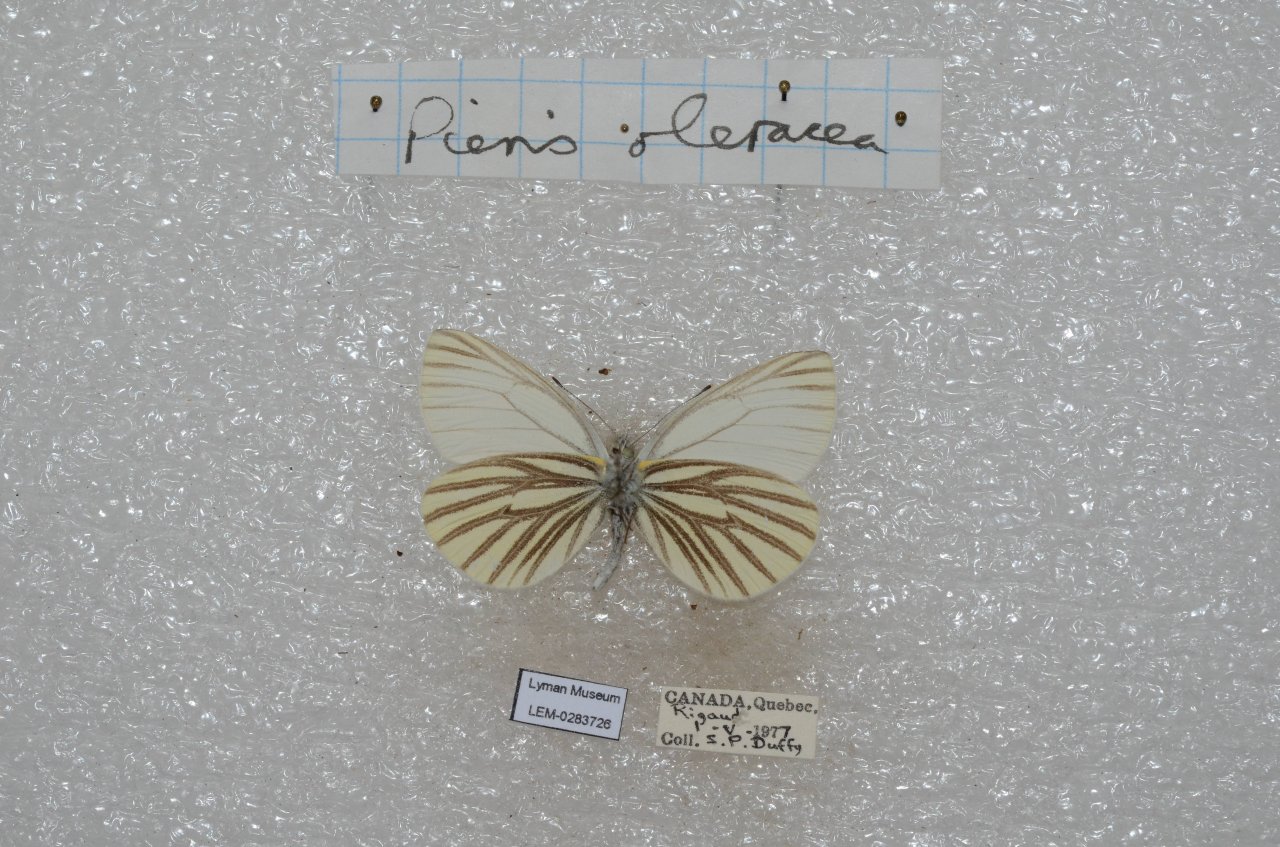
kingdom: Animalia
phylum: Arthropoda
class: Insecta
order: Lepidoptera
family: Pieridae
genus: Pieris
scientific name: Pieris oleracea
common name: Mustard White
